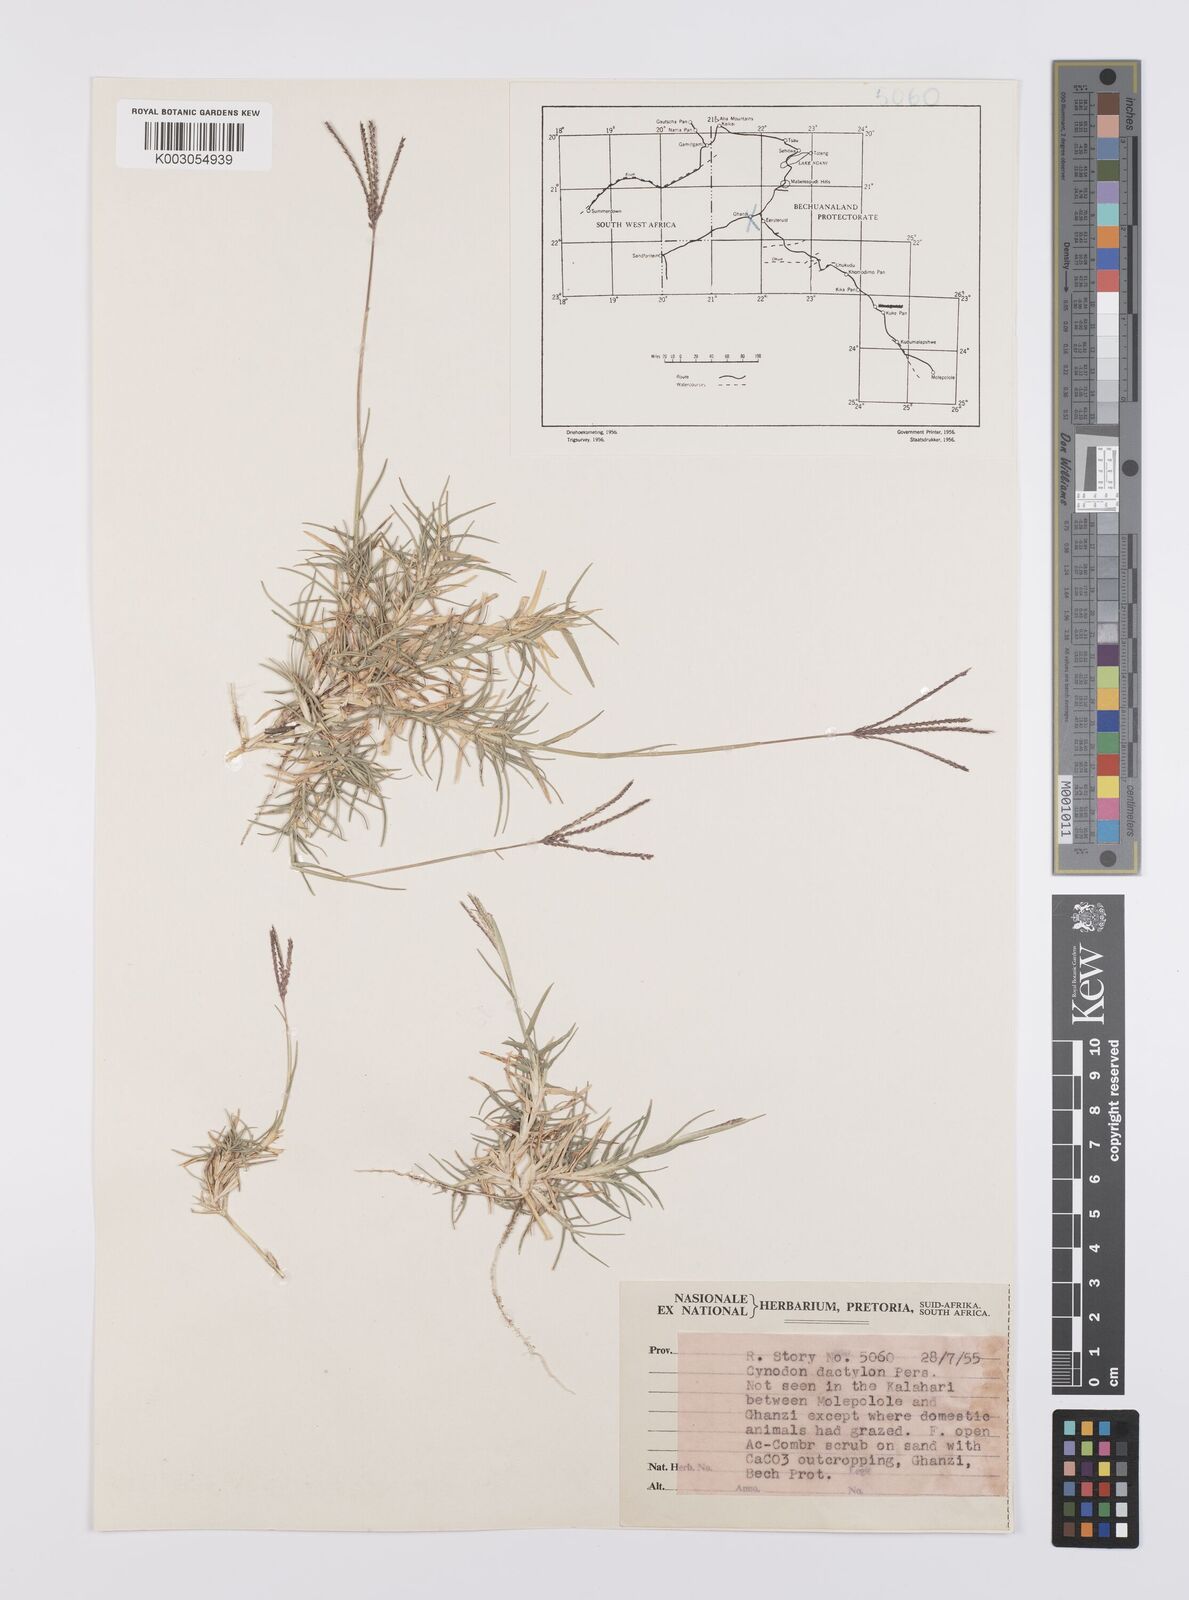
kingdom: Plantae
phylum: Tracheophyta
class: Liliopsida
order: Poales
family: Poaceae
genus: Cynodon
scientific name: Cynodon dactylon
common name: Bermuda grass
